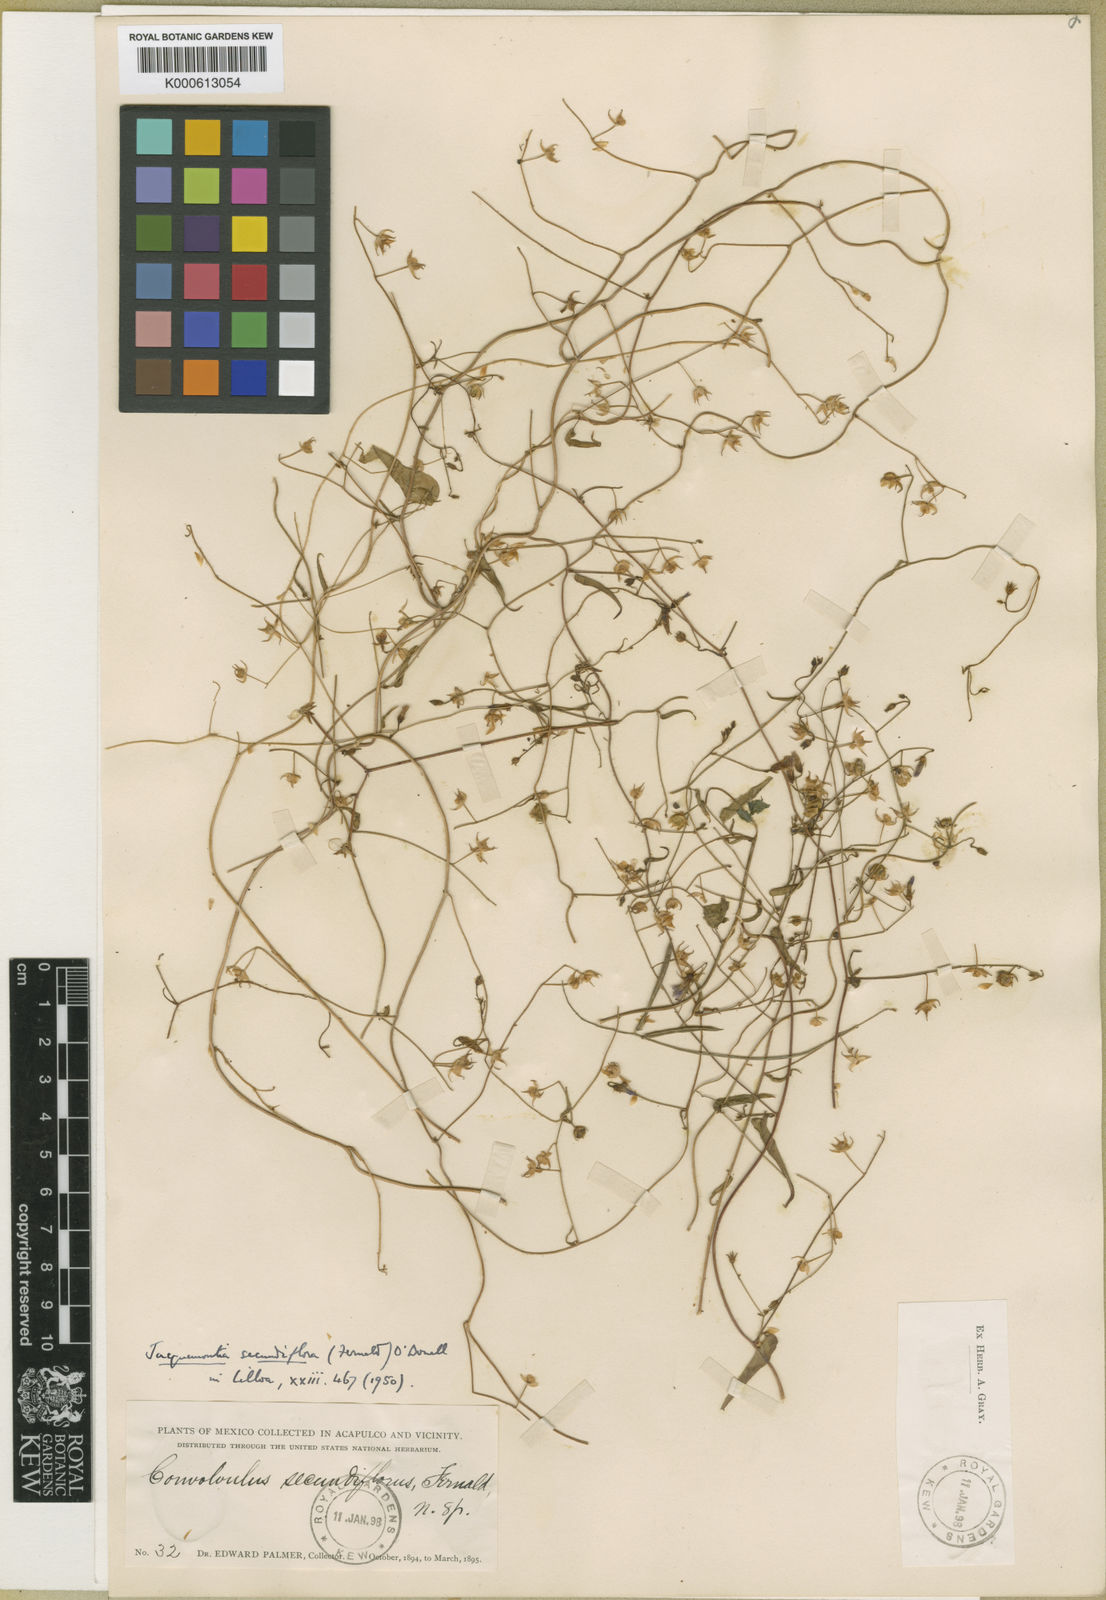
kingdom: Plantae
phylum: Tracheophyta
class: Magnoliopsida
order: Solanales
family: Convolvulaceae
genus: Jacquemontia
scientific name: Jacquemontia agrestis
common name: Midnightblue clustervine
